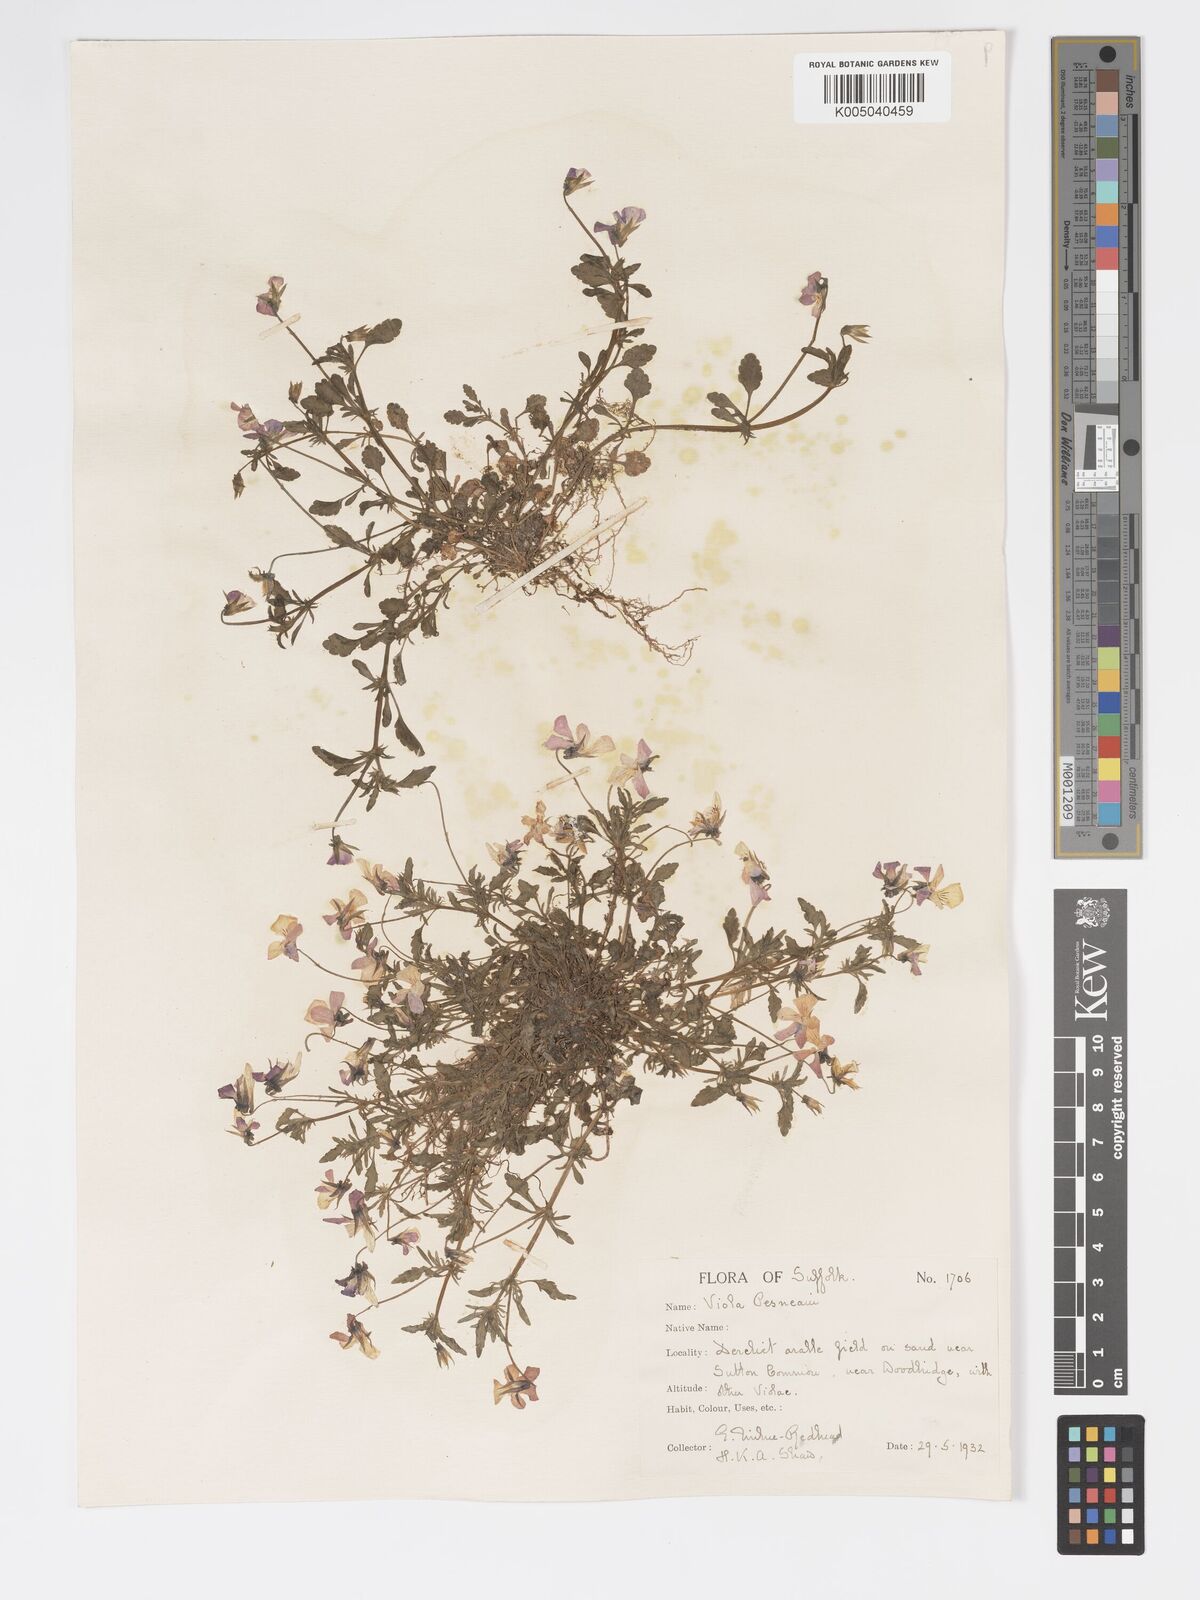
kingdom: Plantae
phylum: Tracheophyta
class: Magnoliopsida
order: Malpighiales
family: Violaceae
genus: Viola
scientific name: Viola arvensis
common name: Field pansy
